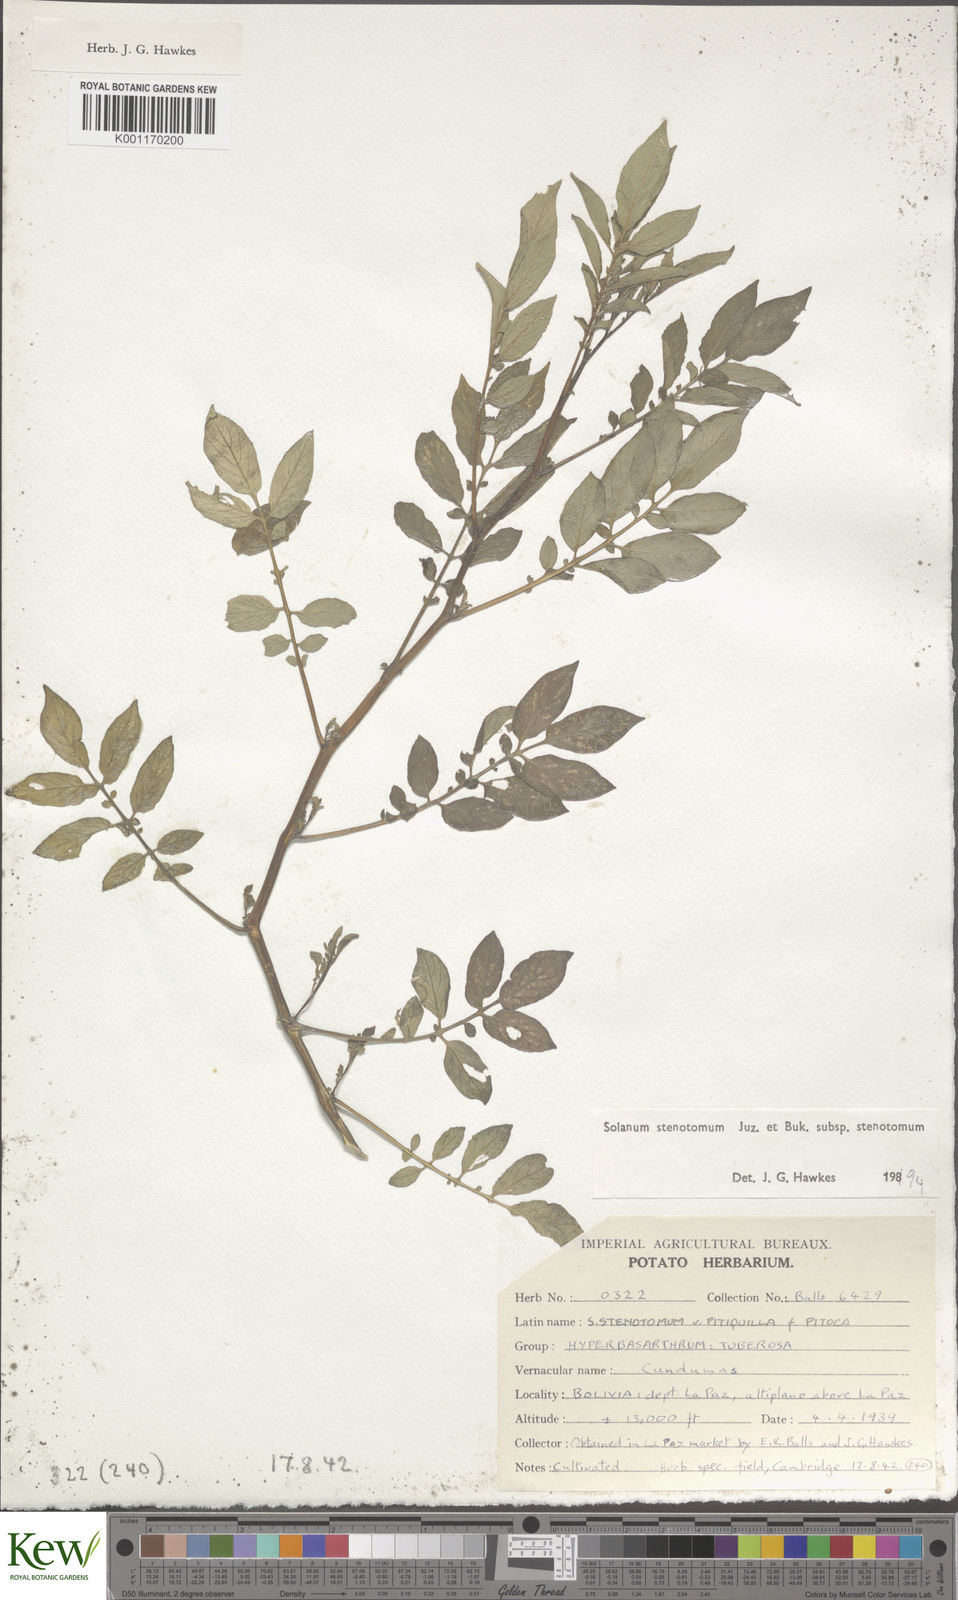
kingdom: Plantae
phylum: Tracheophyta
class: Magnoliopsida
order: Solanales
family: Solanaceae
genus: Solanum
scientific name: Solanum tuberosum
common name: Potato
